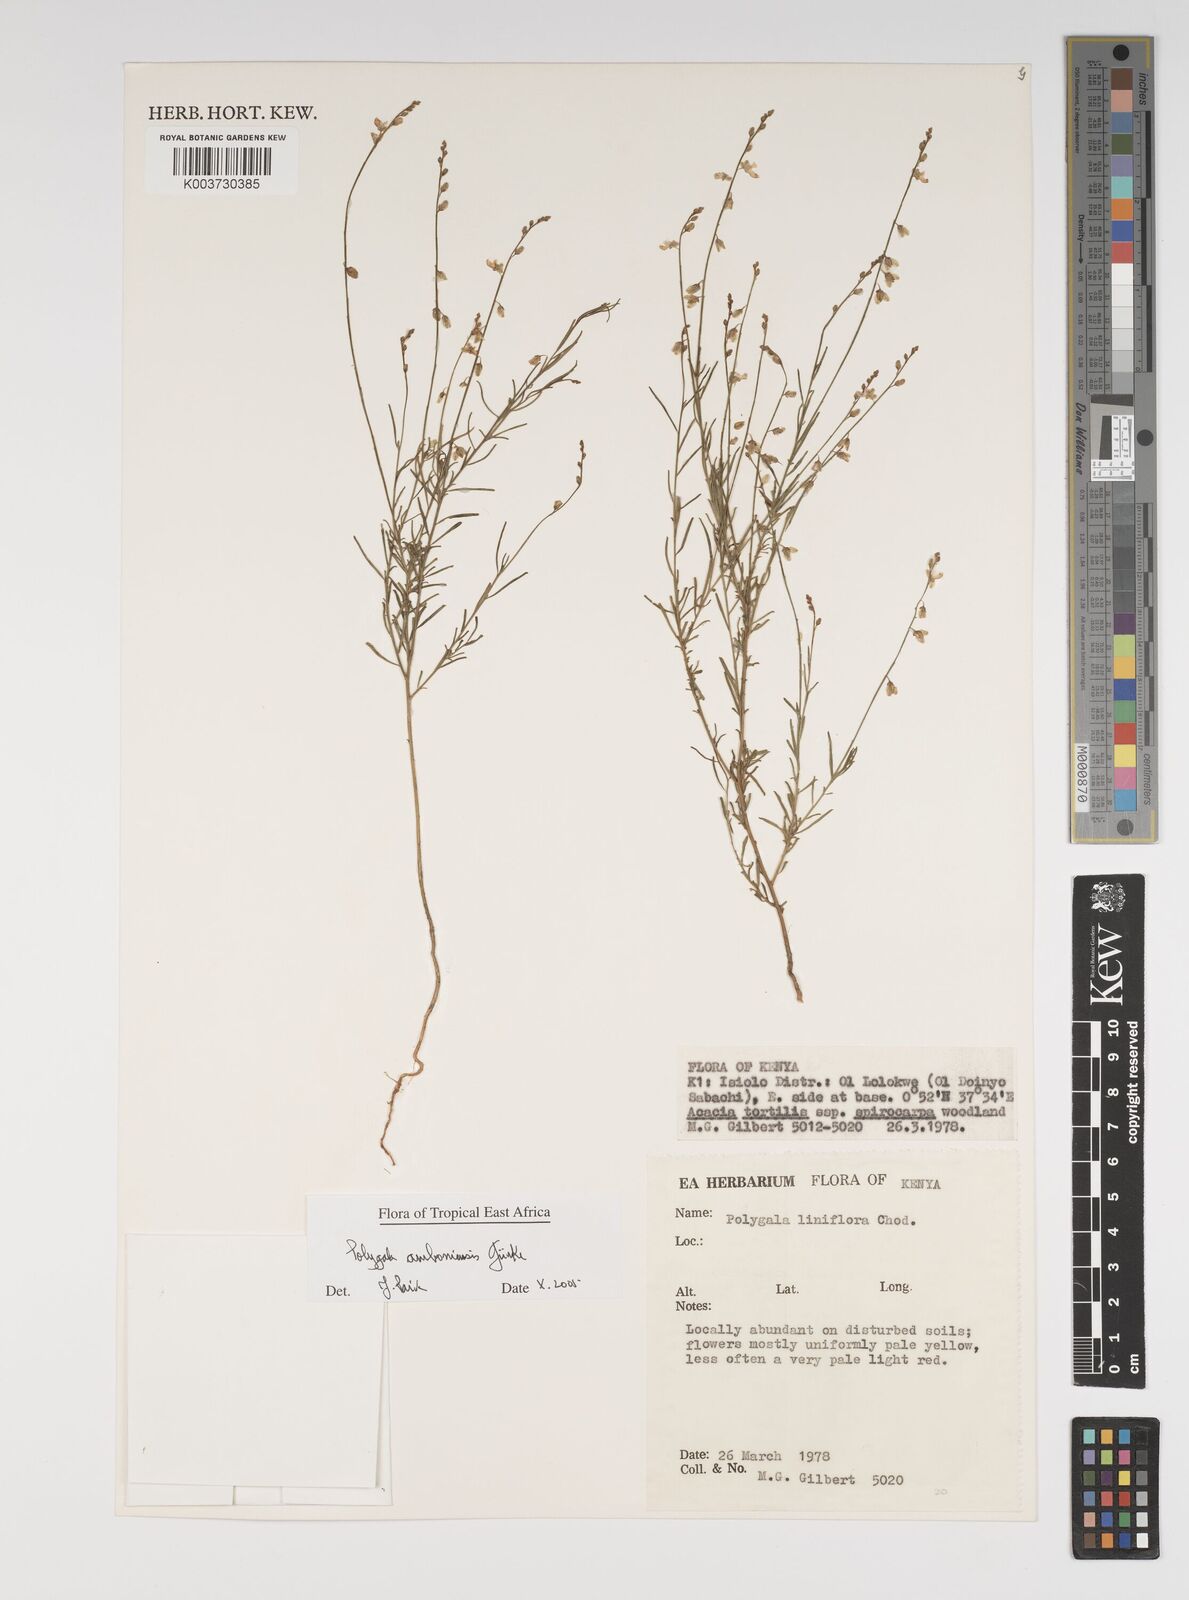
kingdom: Plantae
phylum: Tracheophyta
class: Magnoliopsida
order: Fabales
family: Polygalaceae
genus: Polygala
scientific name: Polygala amboniensis
